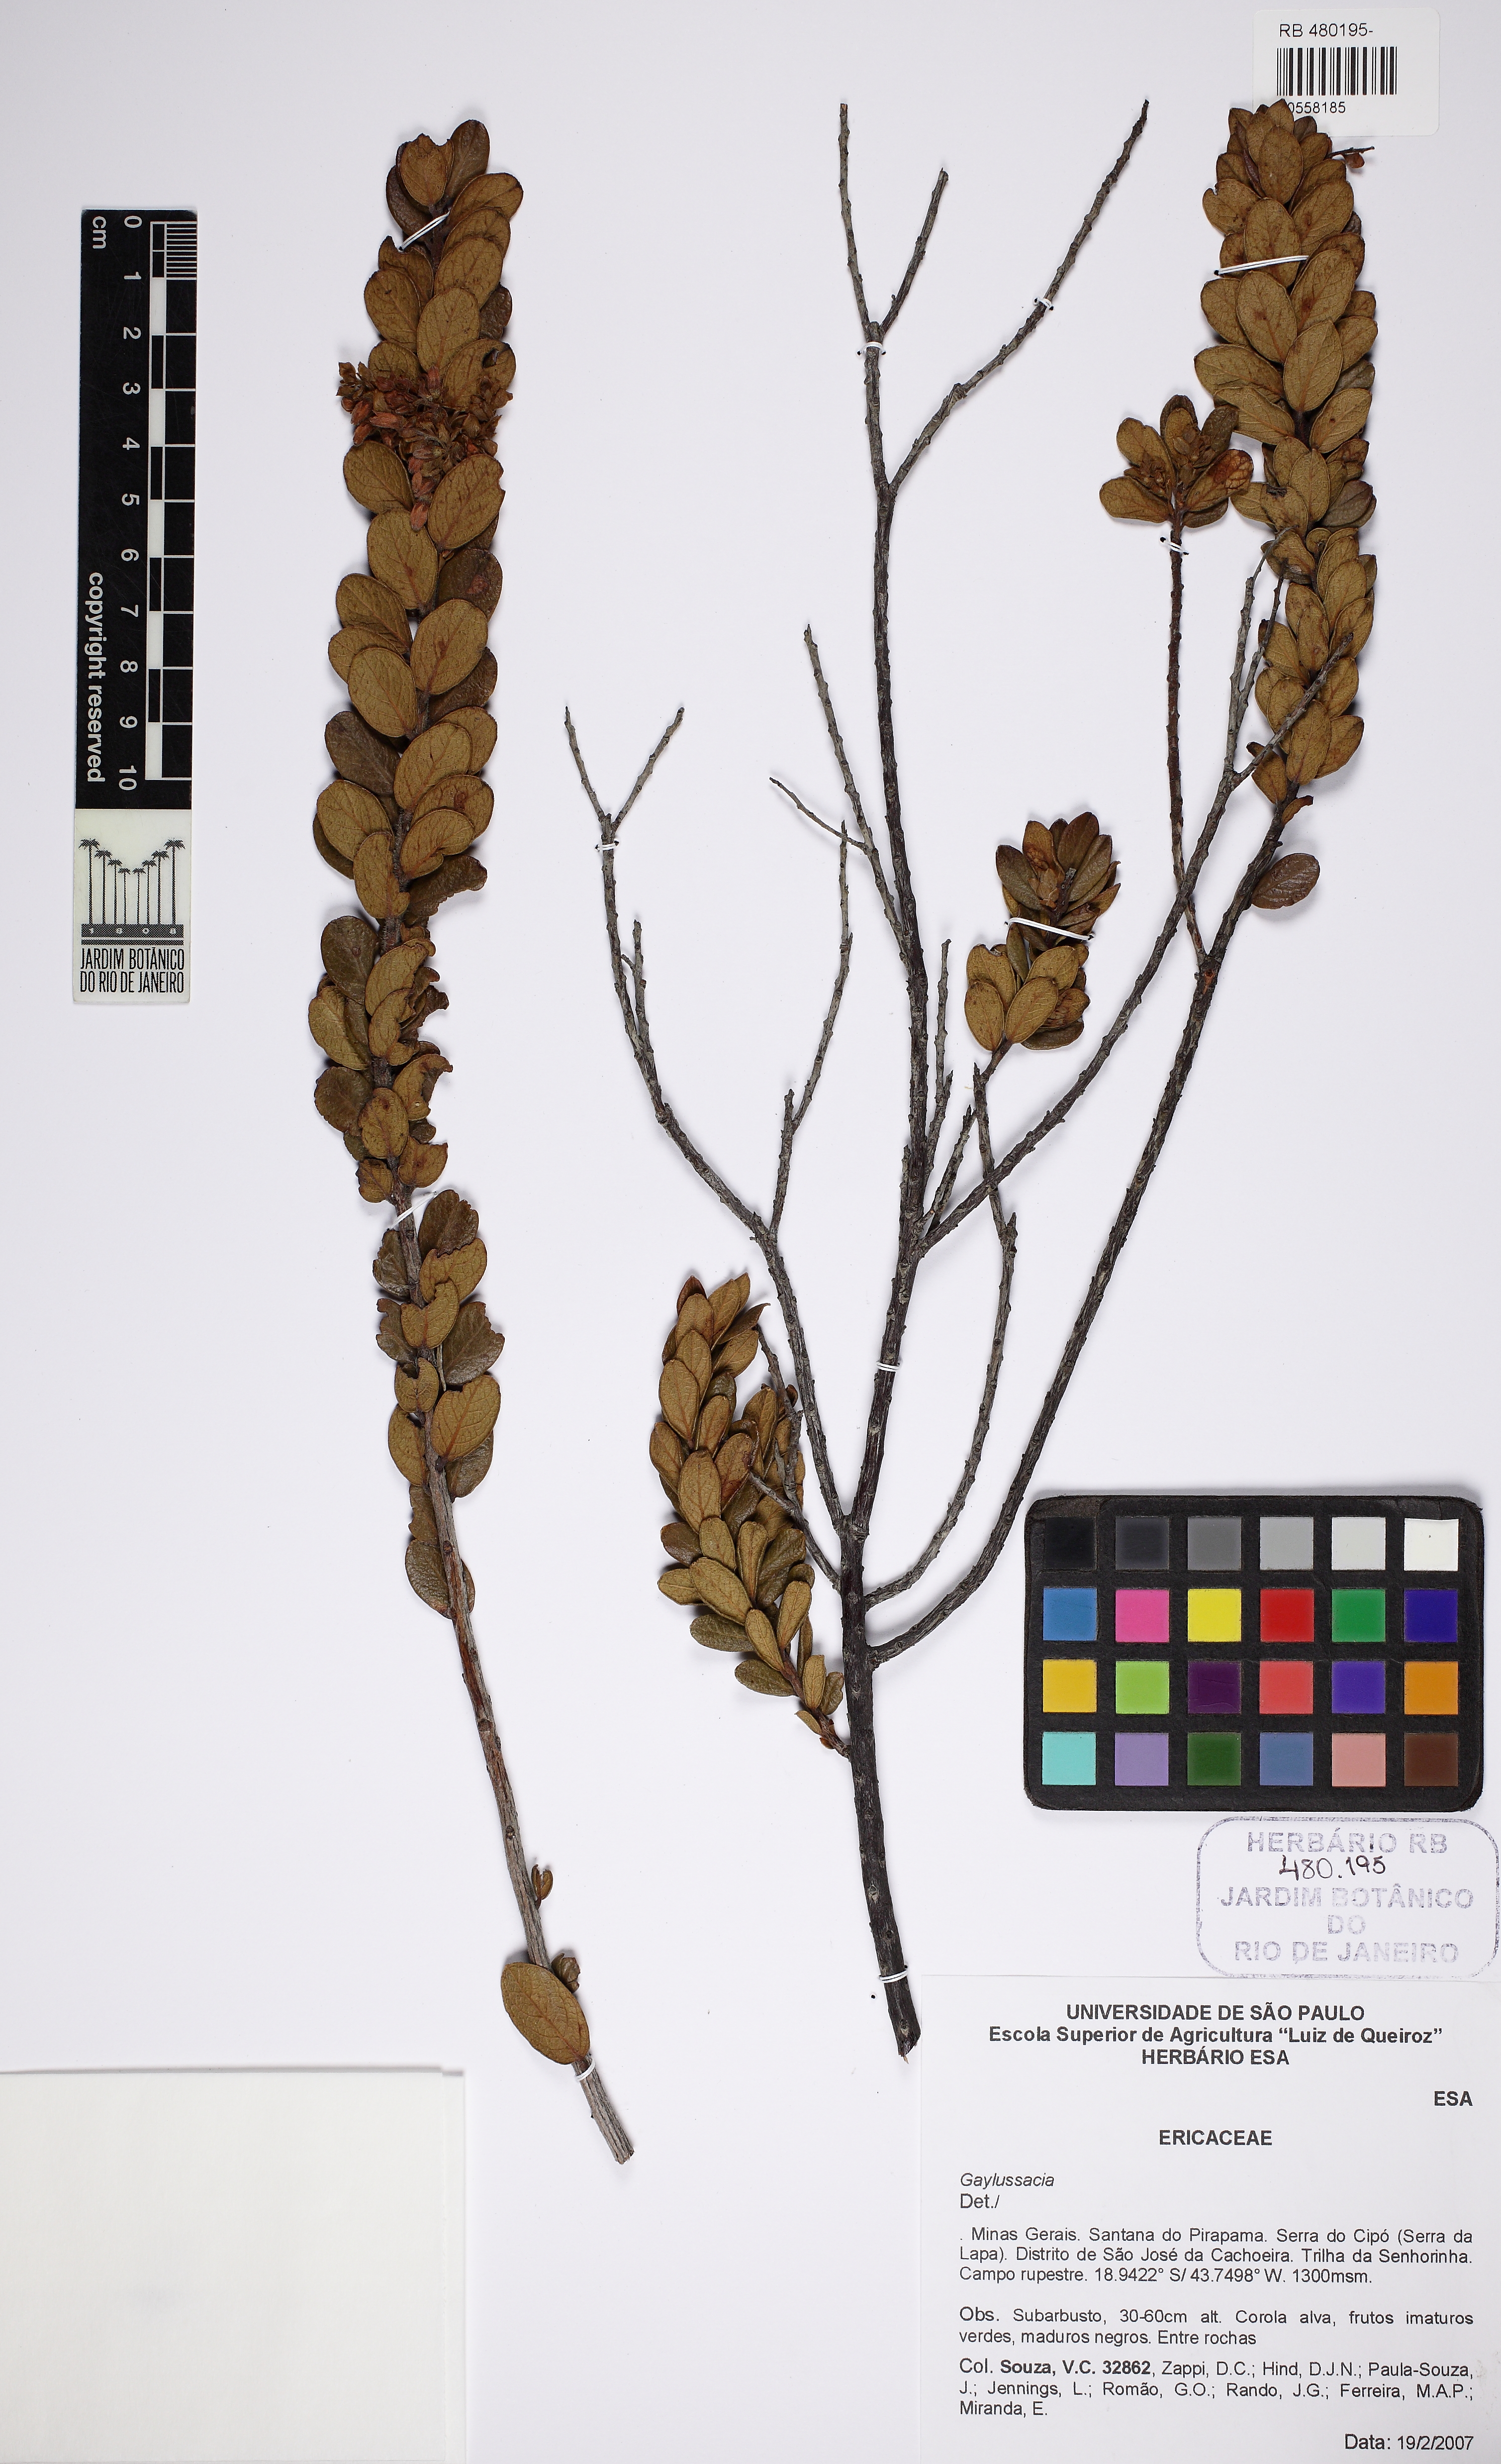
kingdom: Plantae
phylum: Tracheophyta
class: Magnoliopsida
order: Ericales
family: Ericaceae
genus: Gaylussacia
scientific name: Gaylussacia
